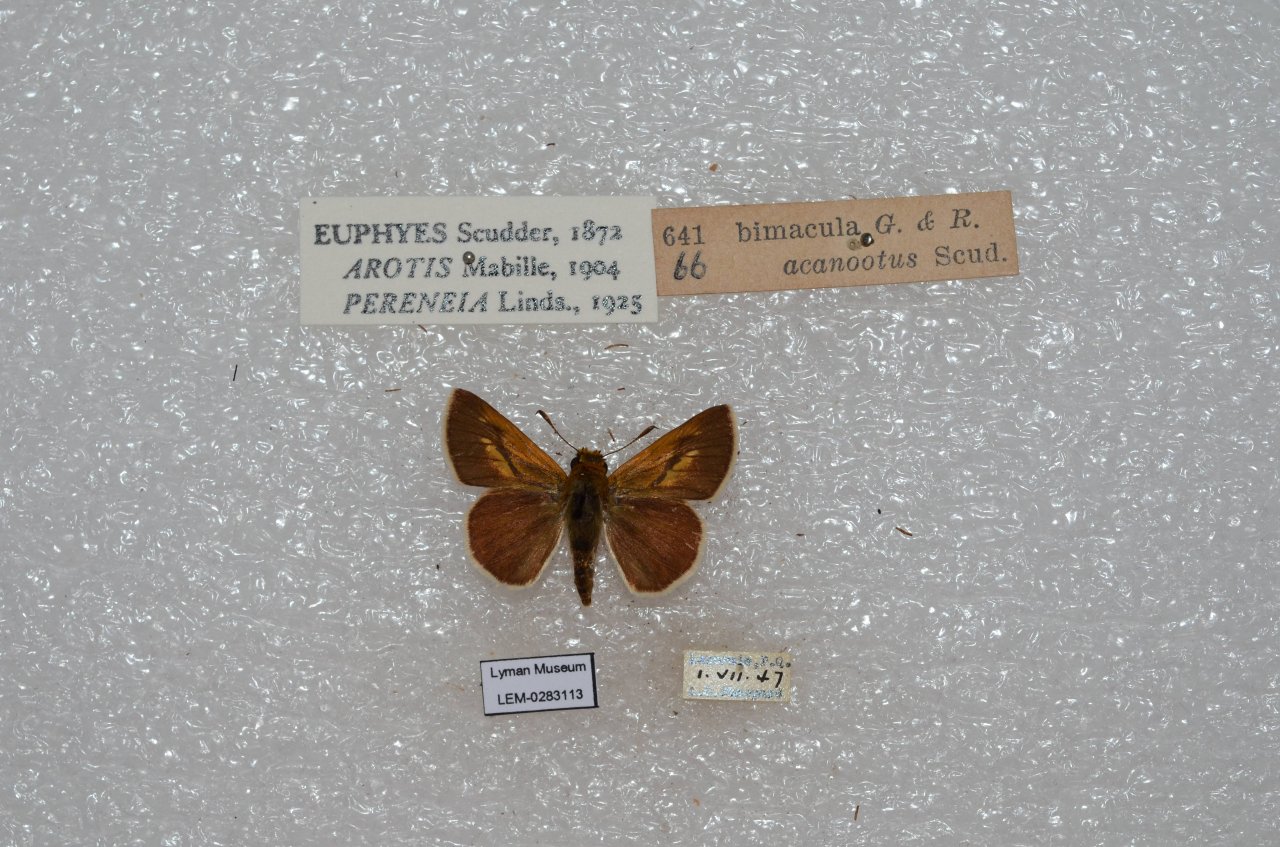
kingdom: Animalia
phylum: Arthropoda
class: Insecta
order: Lepidoptera
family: Hesperiidae
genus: Euphyes
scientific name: Euphyes bimacula
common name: Two-spotted Skipper
